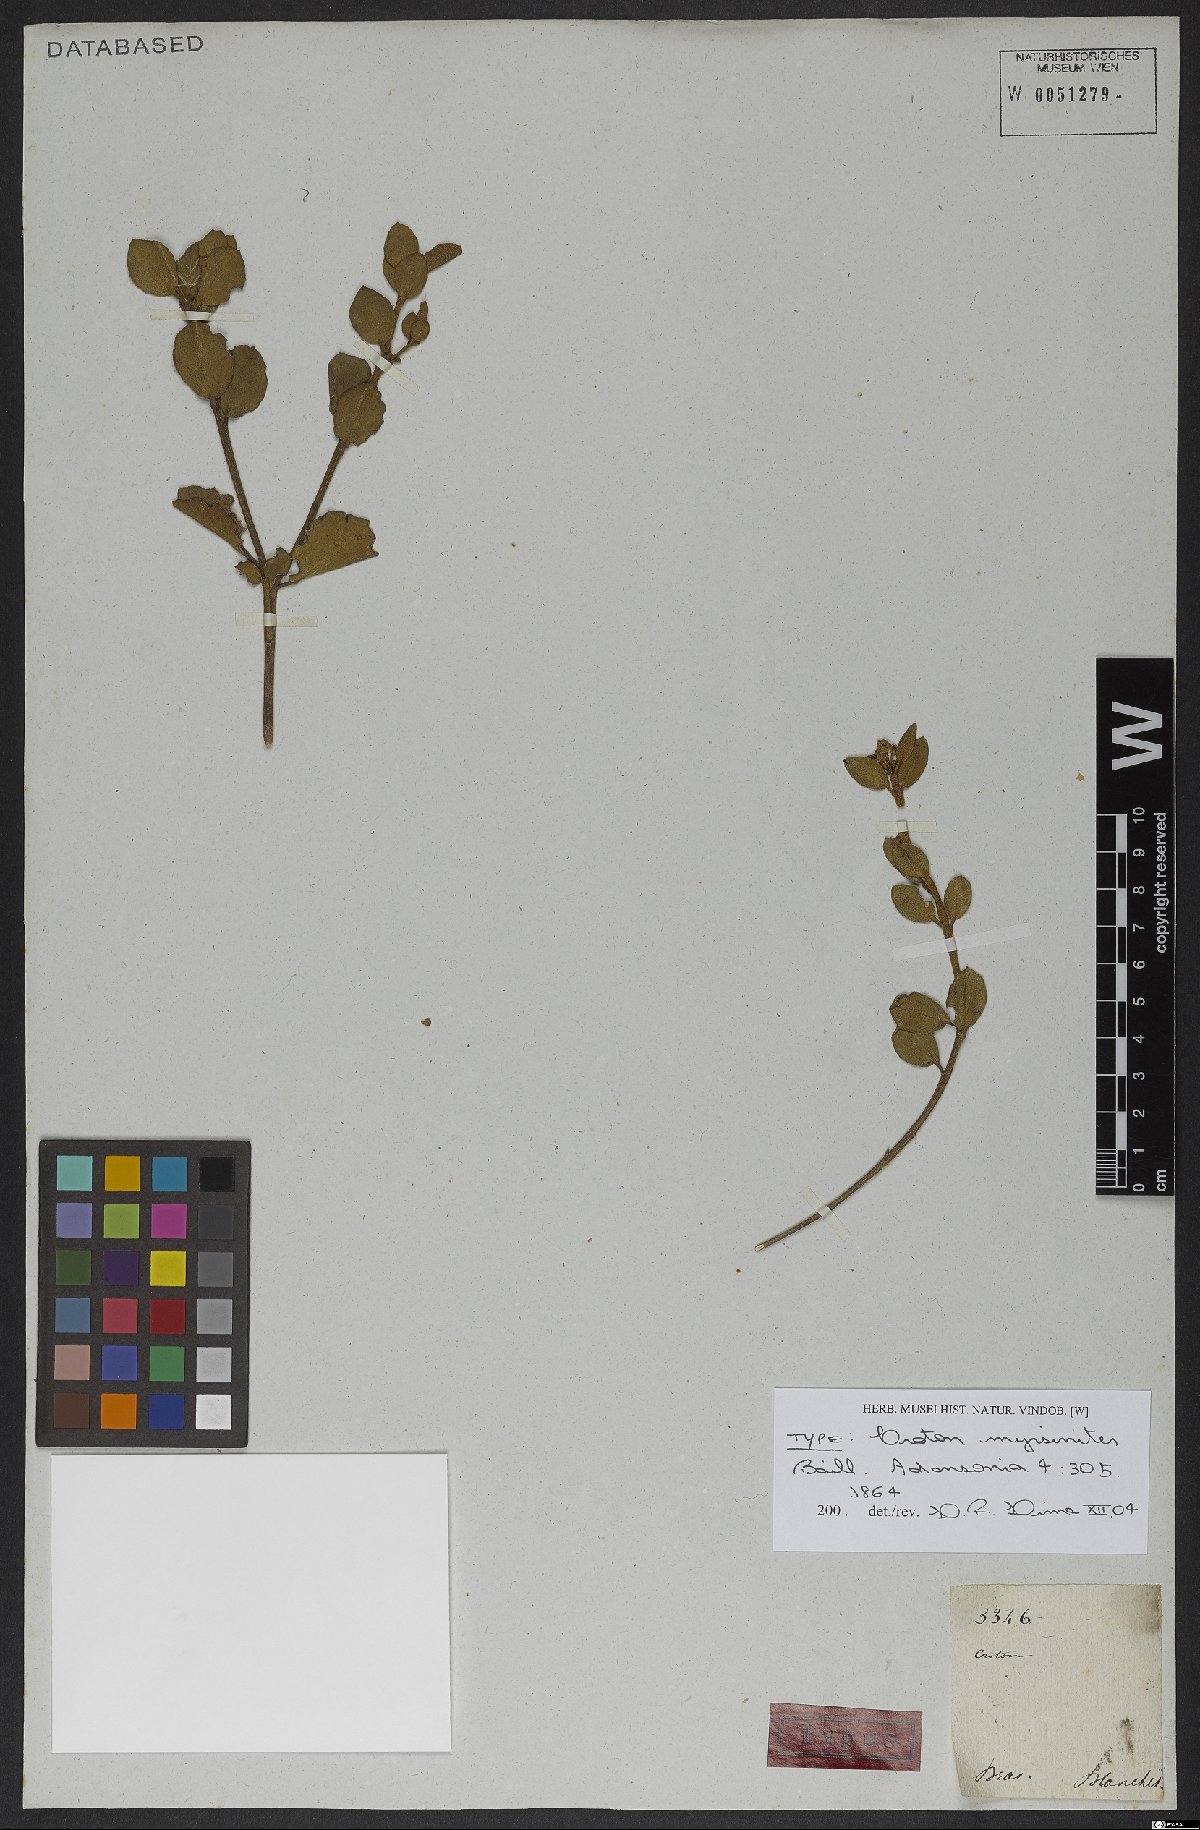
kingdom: Plantae
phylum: Tracheophyta
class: Magnoliopsida
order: Malpighiales
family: Euphorbiaceae
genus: Croton
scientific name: Croton myrsinites
